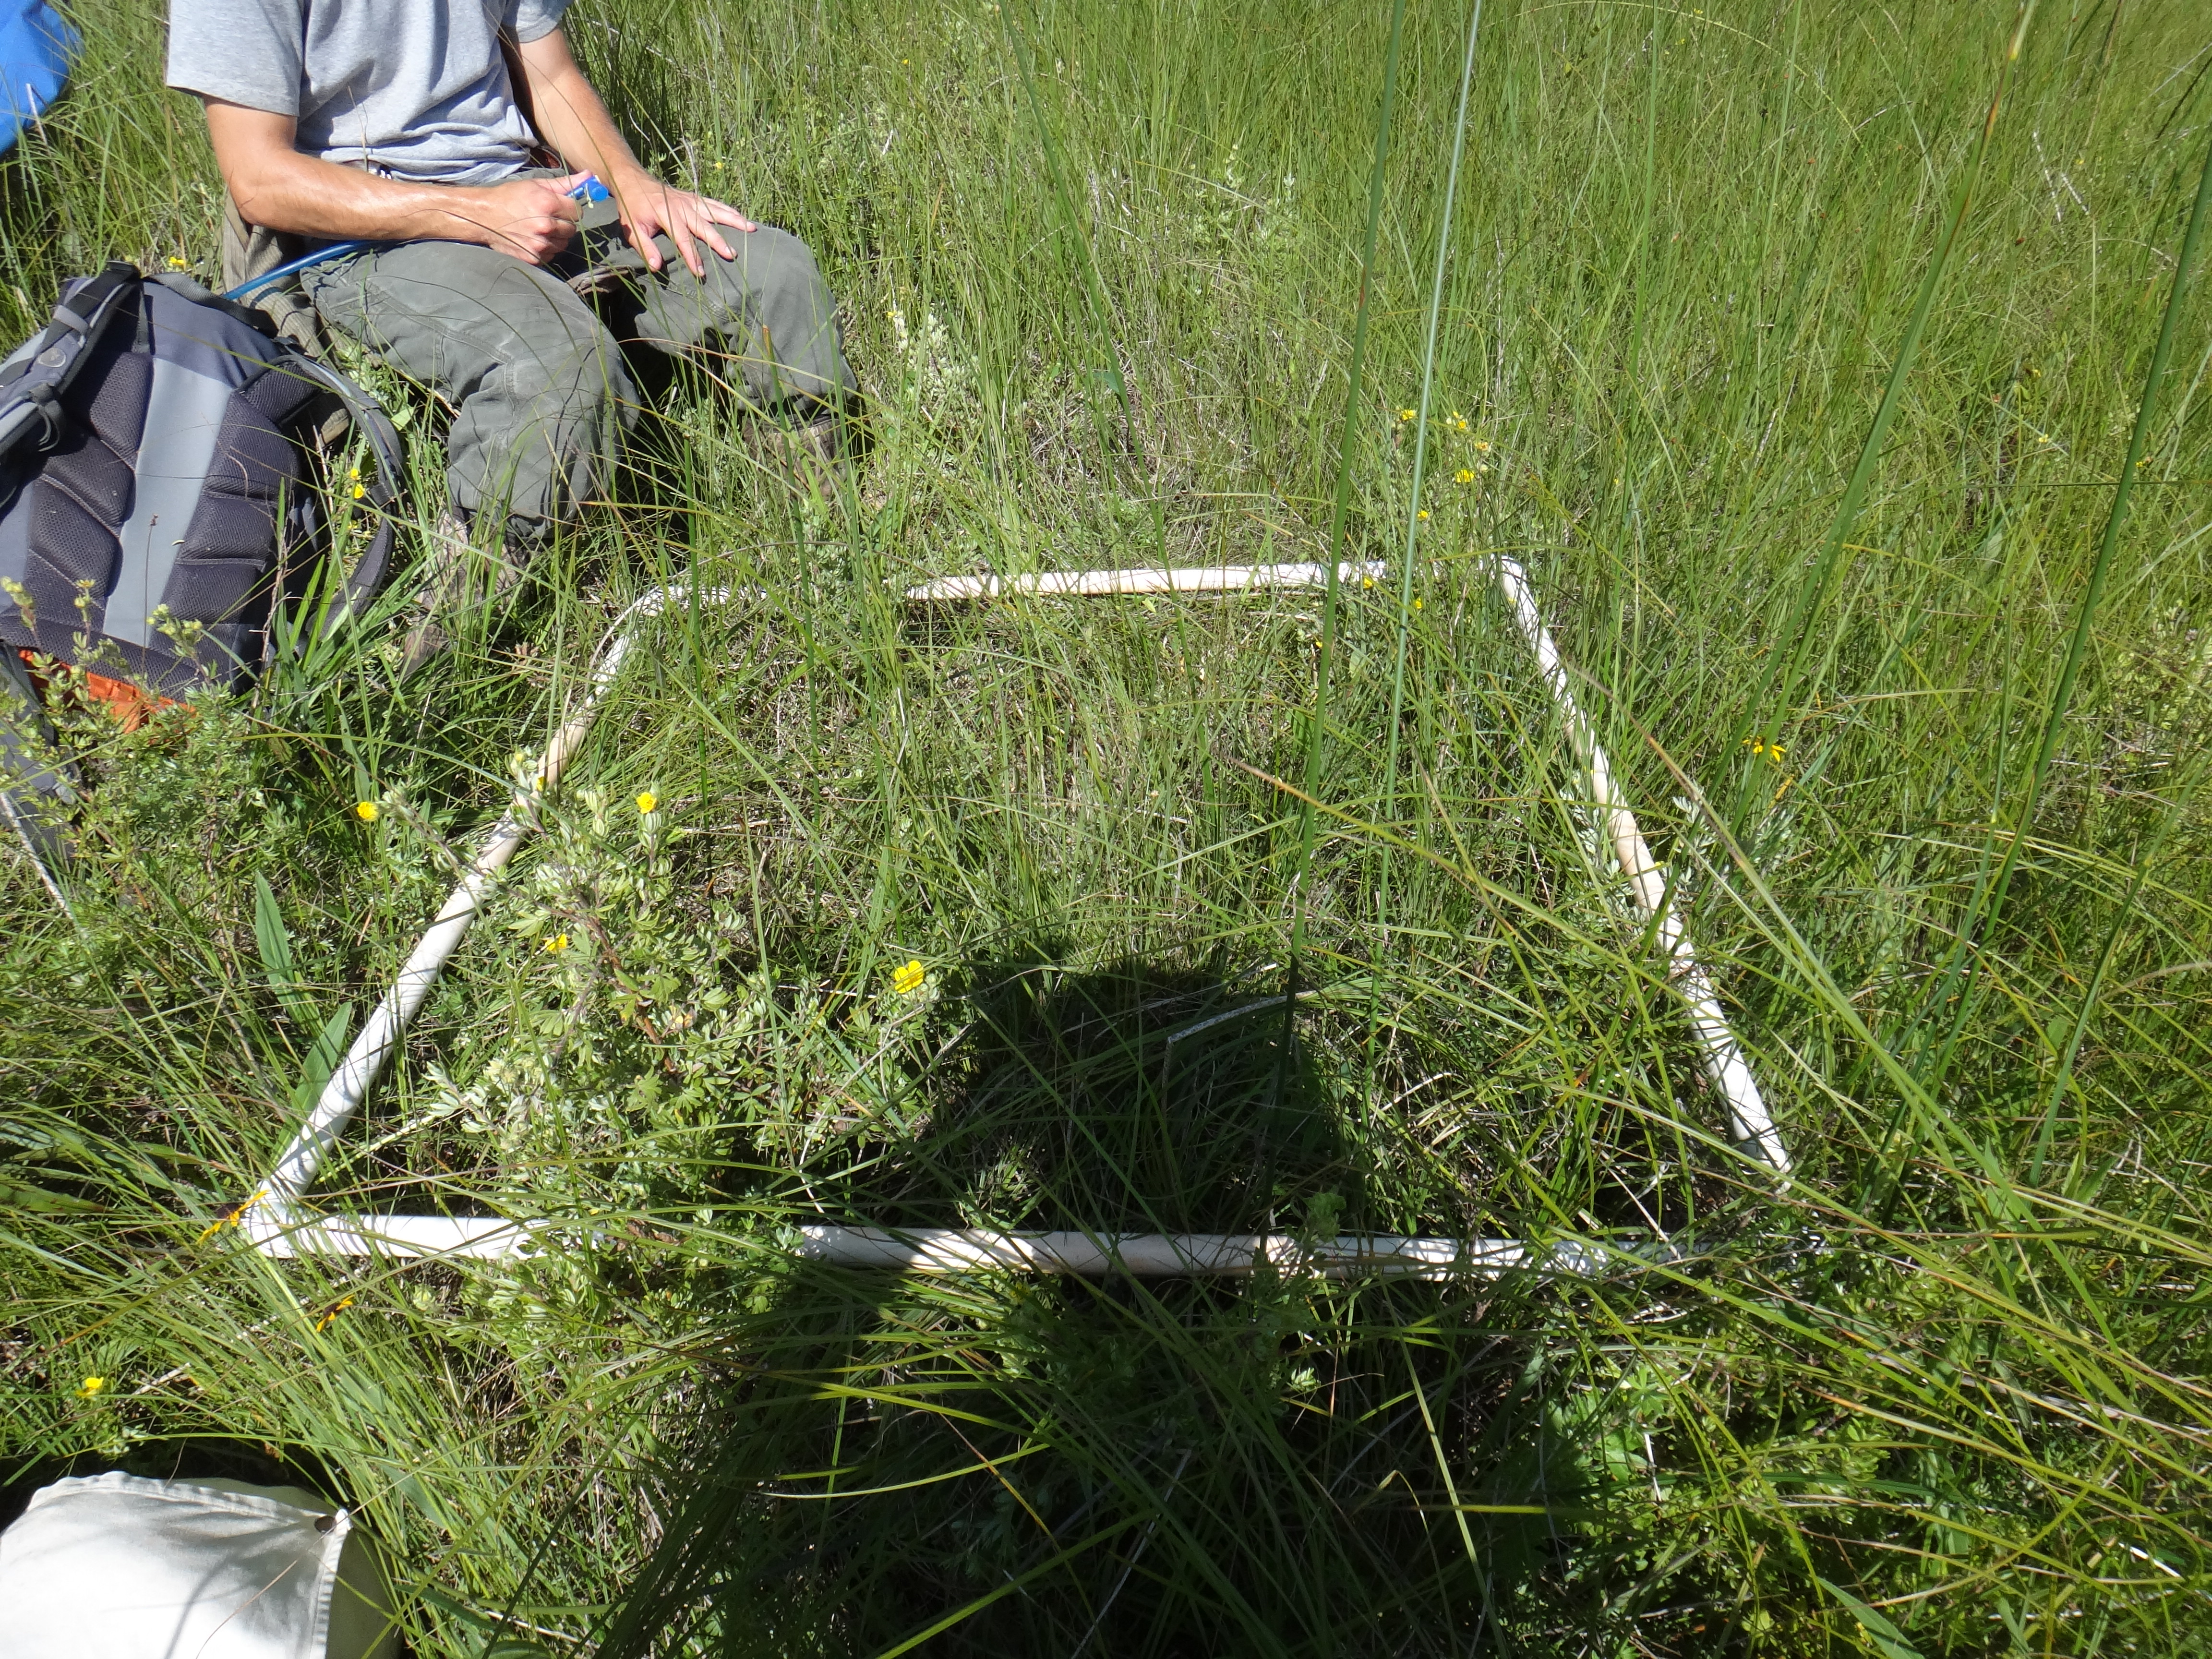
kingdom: Plantae
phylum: Tracheophyta
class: Liliopsida
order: Poales
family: Cyperaceae
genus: Schoenoplectus
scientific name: Schoenoplectus acutus
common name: Hardstem bulrush
